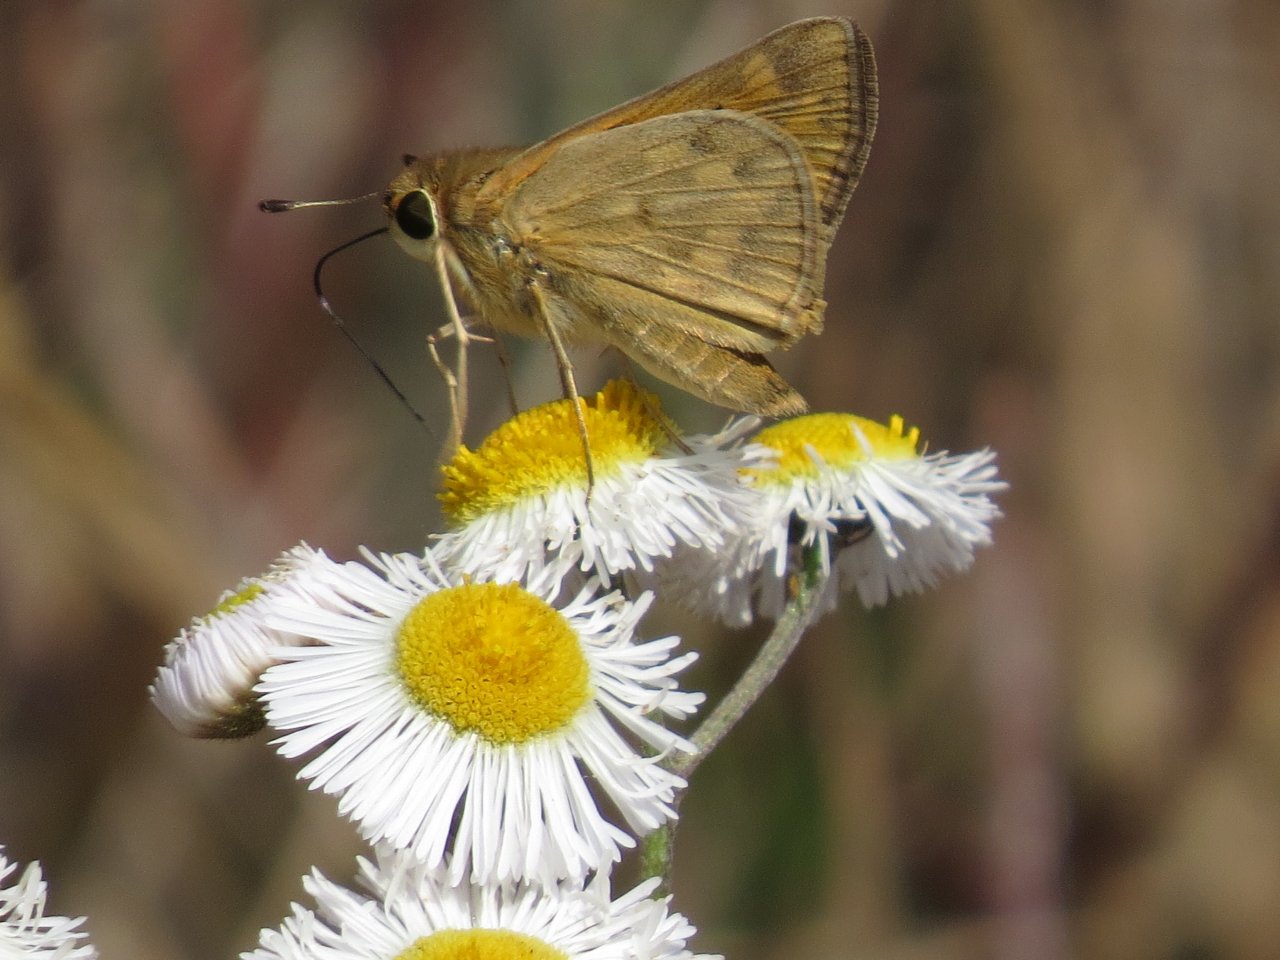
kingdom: Animalia
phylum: Arthropoda
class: Insecta
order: Lepidoptera
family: Hesperiidae
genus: Hylephila
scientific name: Hylephila phyleus
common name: Fiery Skipper
